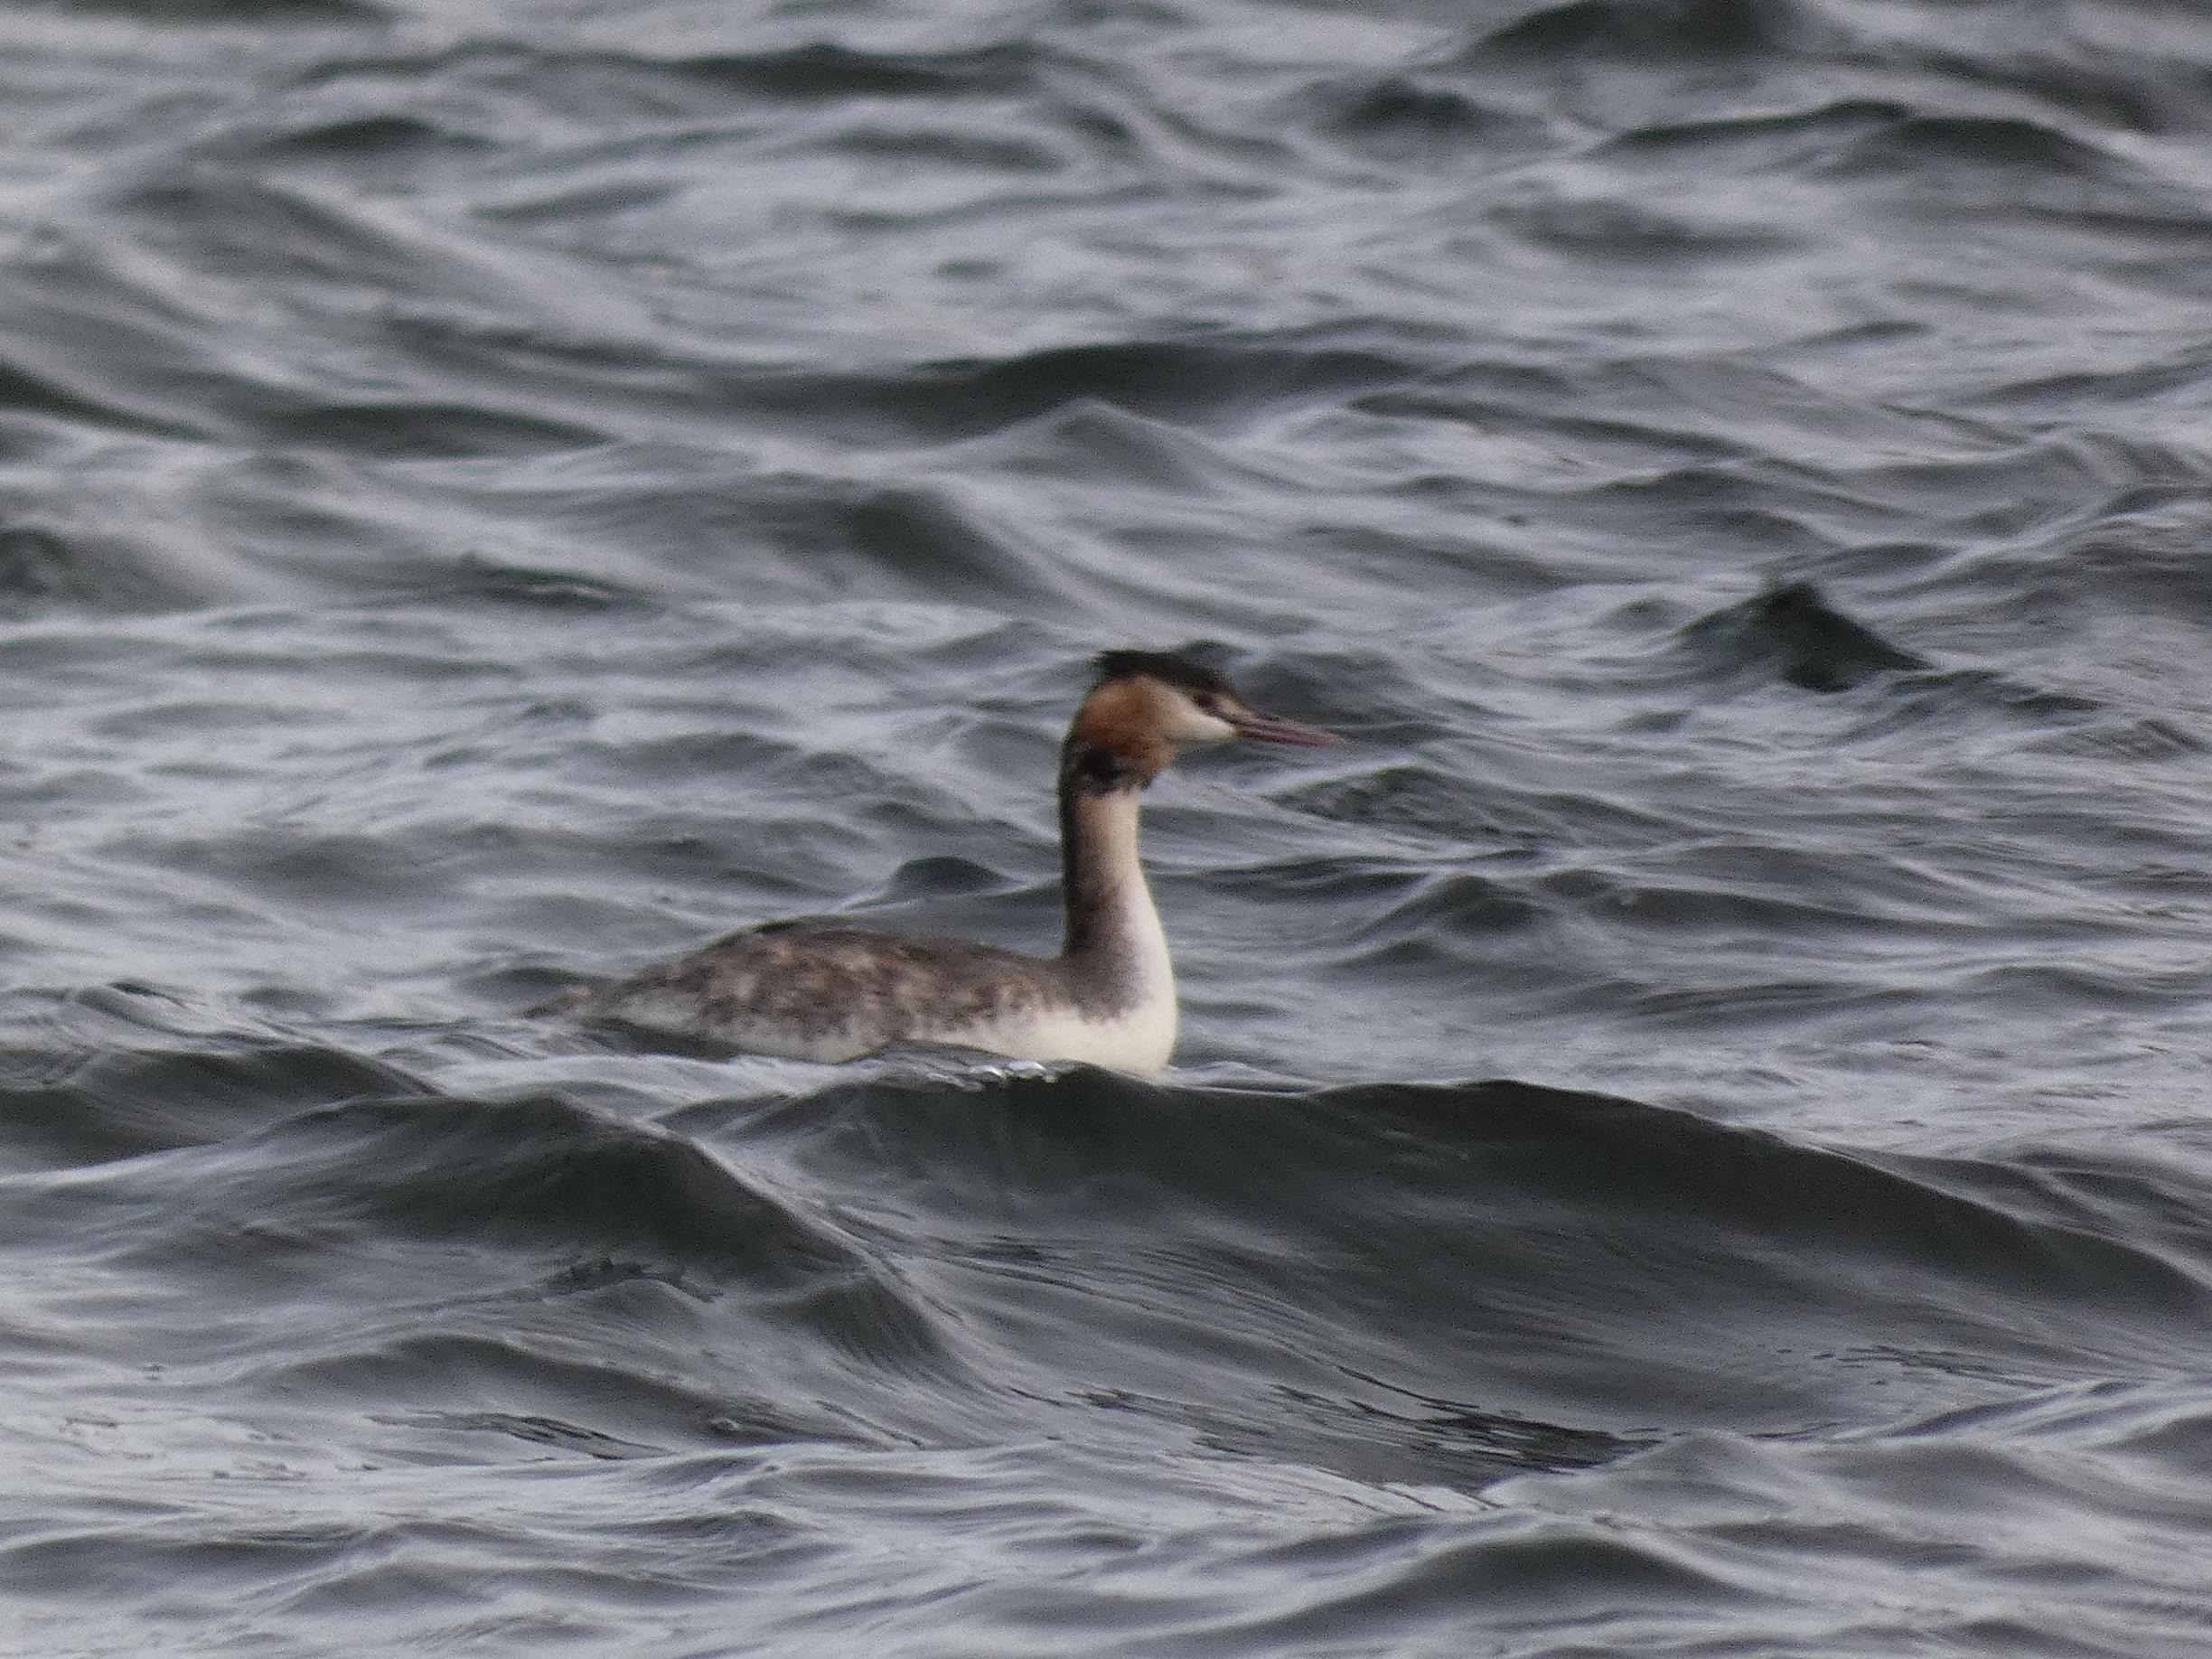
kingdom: Animalia
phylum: Chordata
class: Aves
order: Podicipediformes
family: Podicipedidae
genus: Podiceps
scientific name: Podiceps cristatus
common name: Toppet lappedykker
